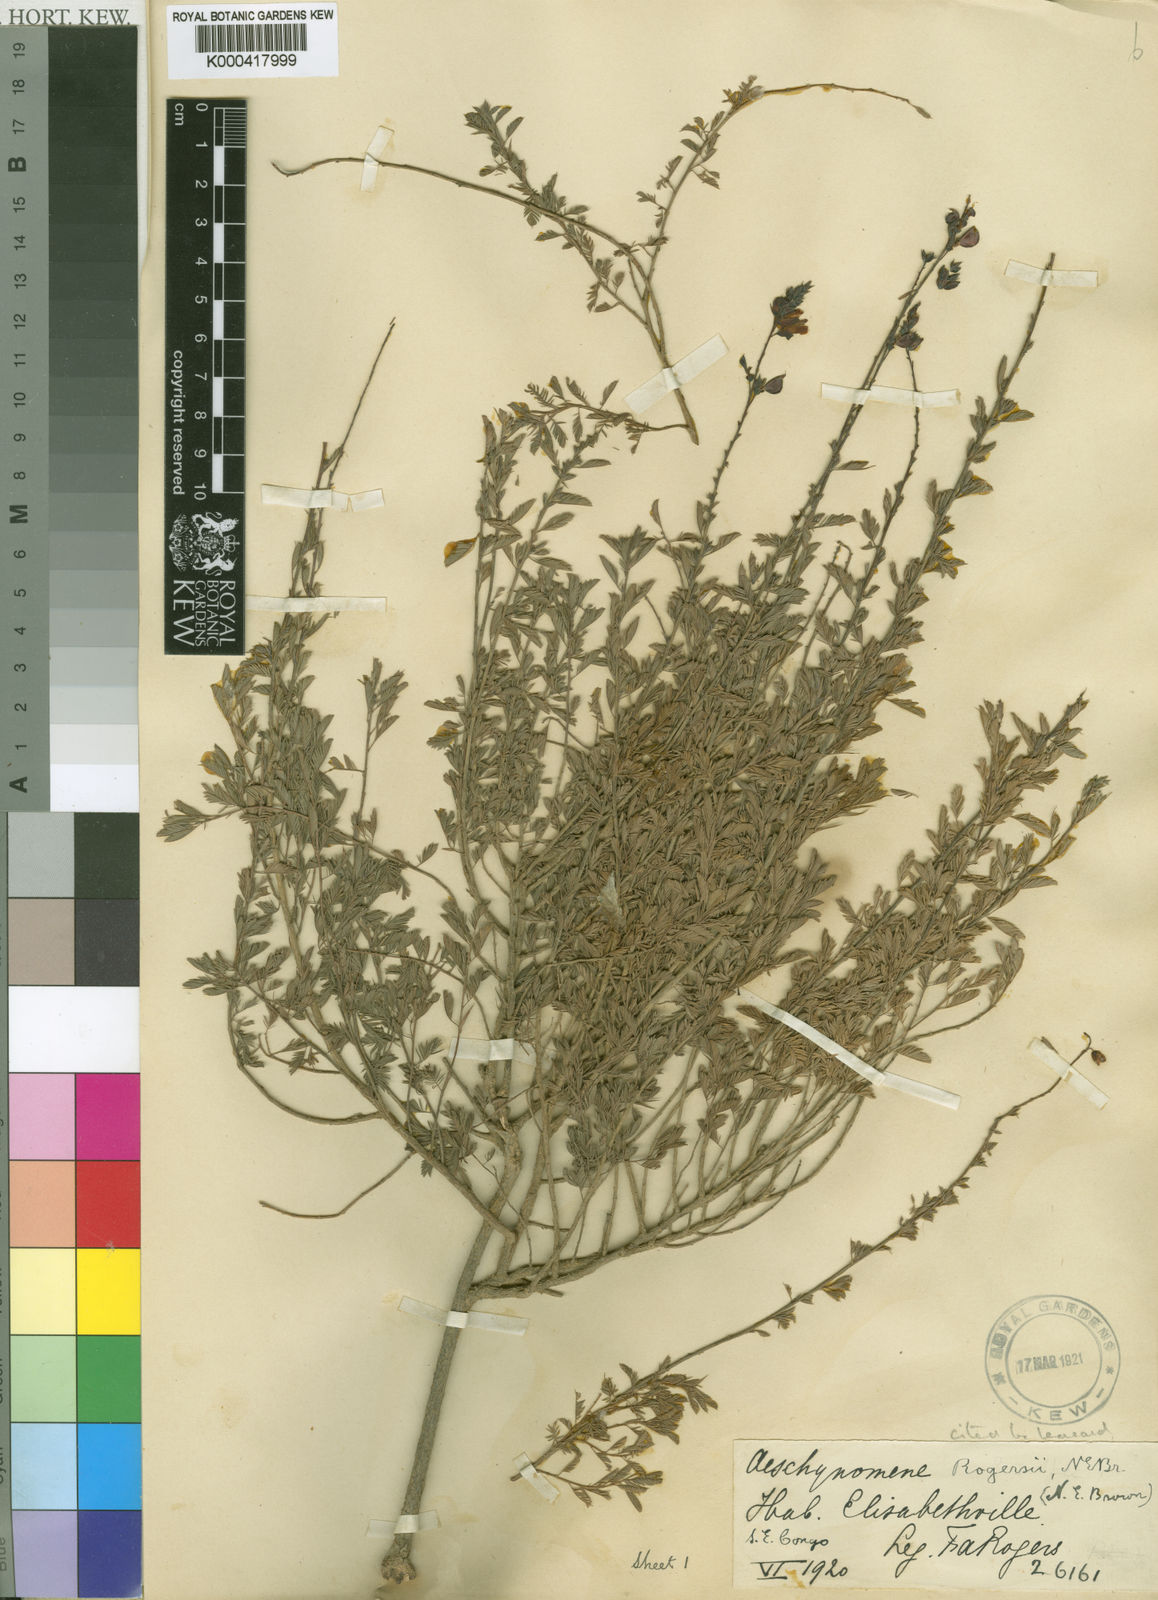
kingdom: Plantae
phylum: Tracheophyta
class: Magnoliopsida
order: Fabales
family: Fabaceae
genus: Aeschynomene
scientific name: Aeschynomene katangensis
